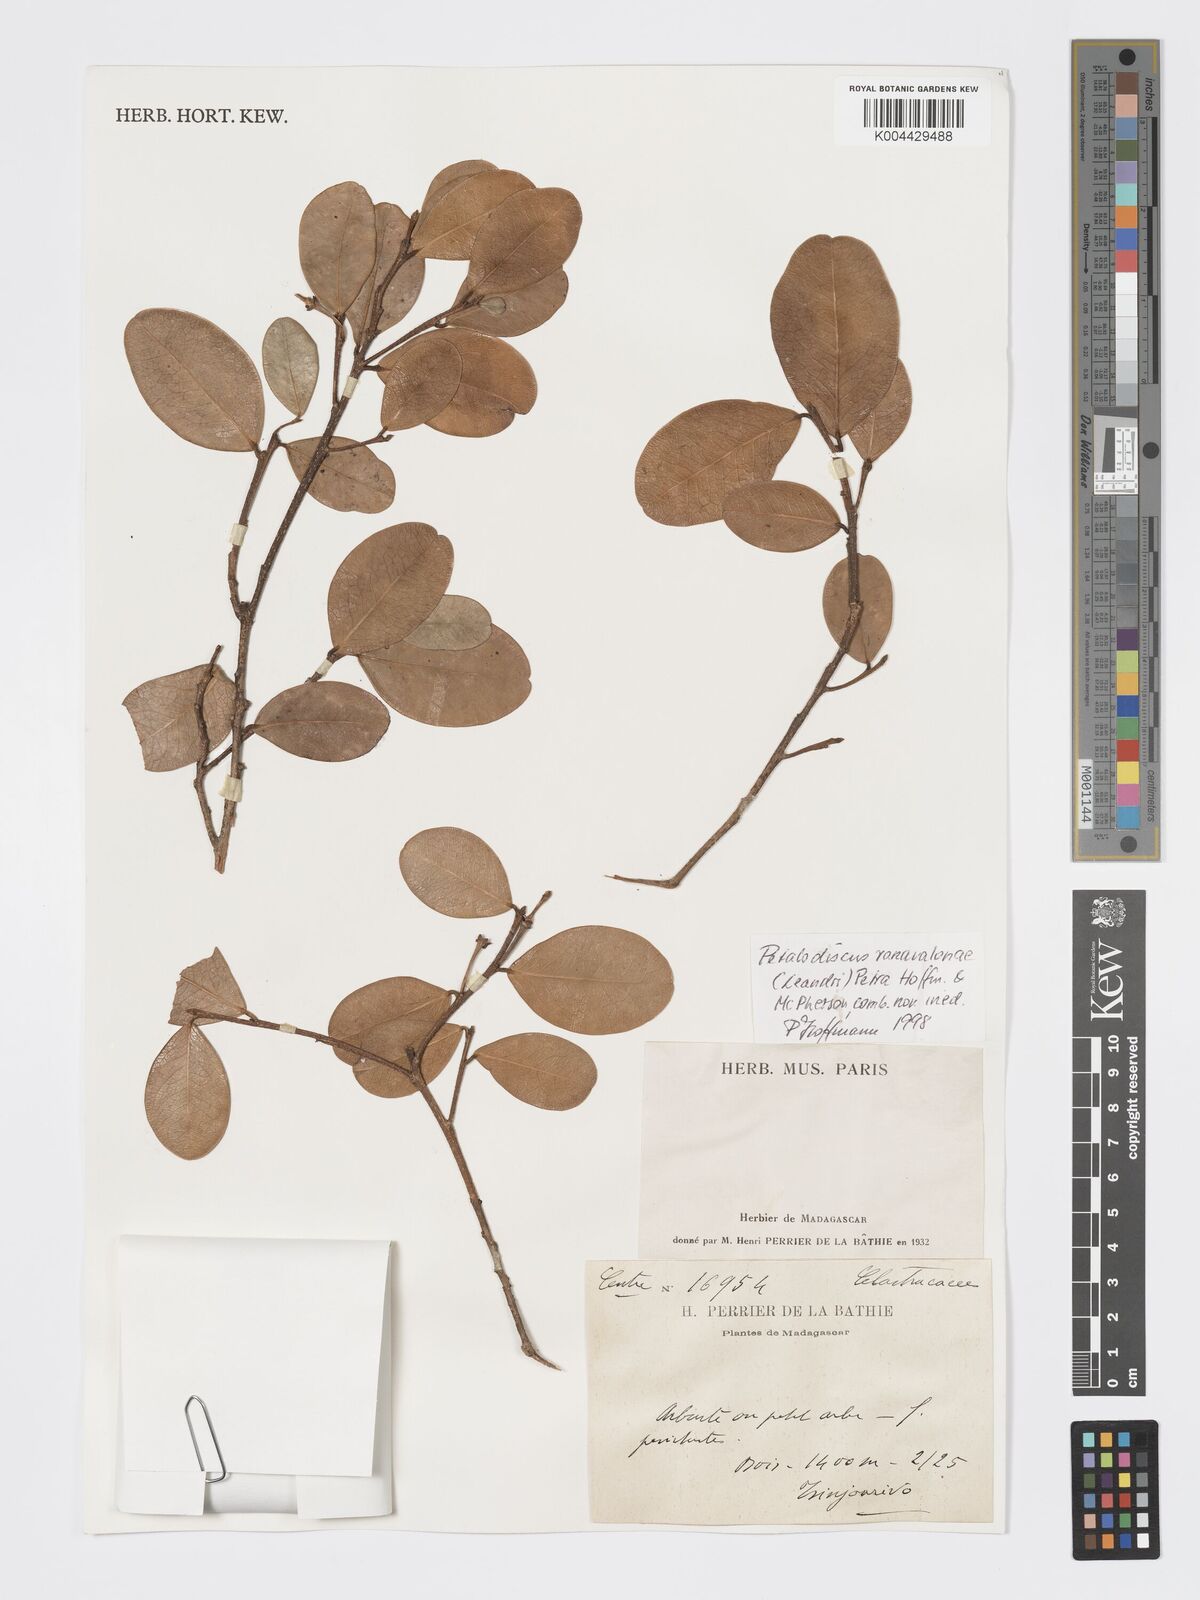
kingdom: Plantae
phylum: Tracheophyta
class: Magnoliopsida
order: Malpighiales
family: Phyllanthaceae
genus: Wielandia
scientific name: Wielandia ranavalonae
